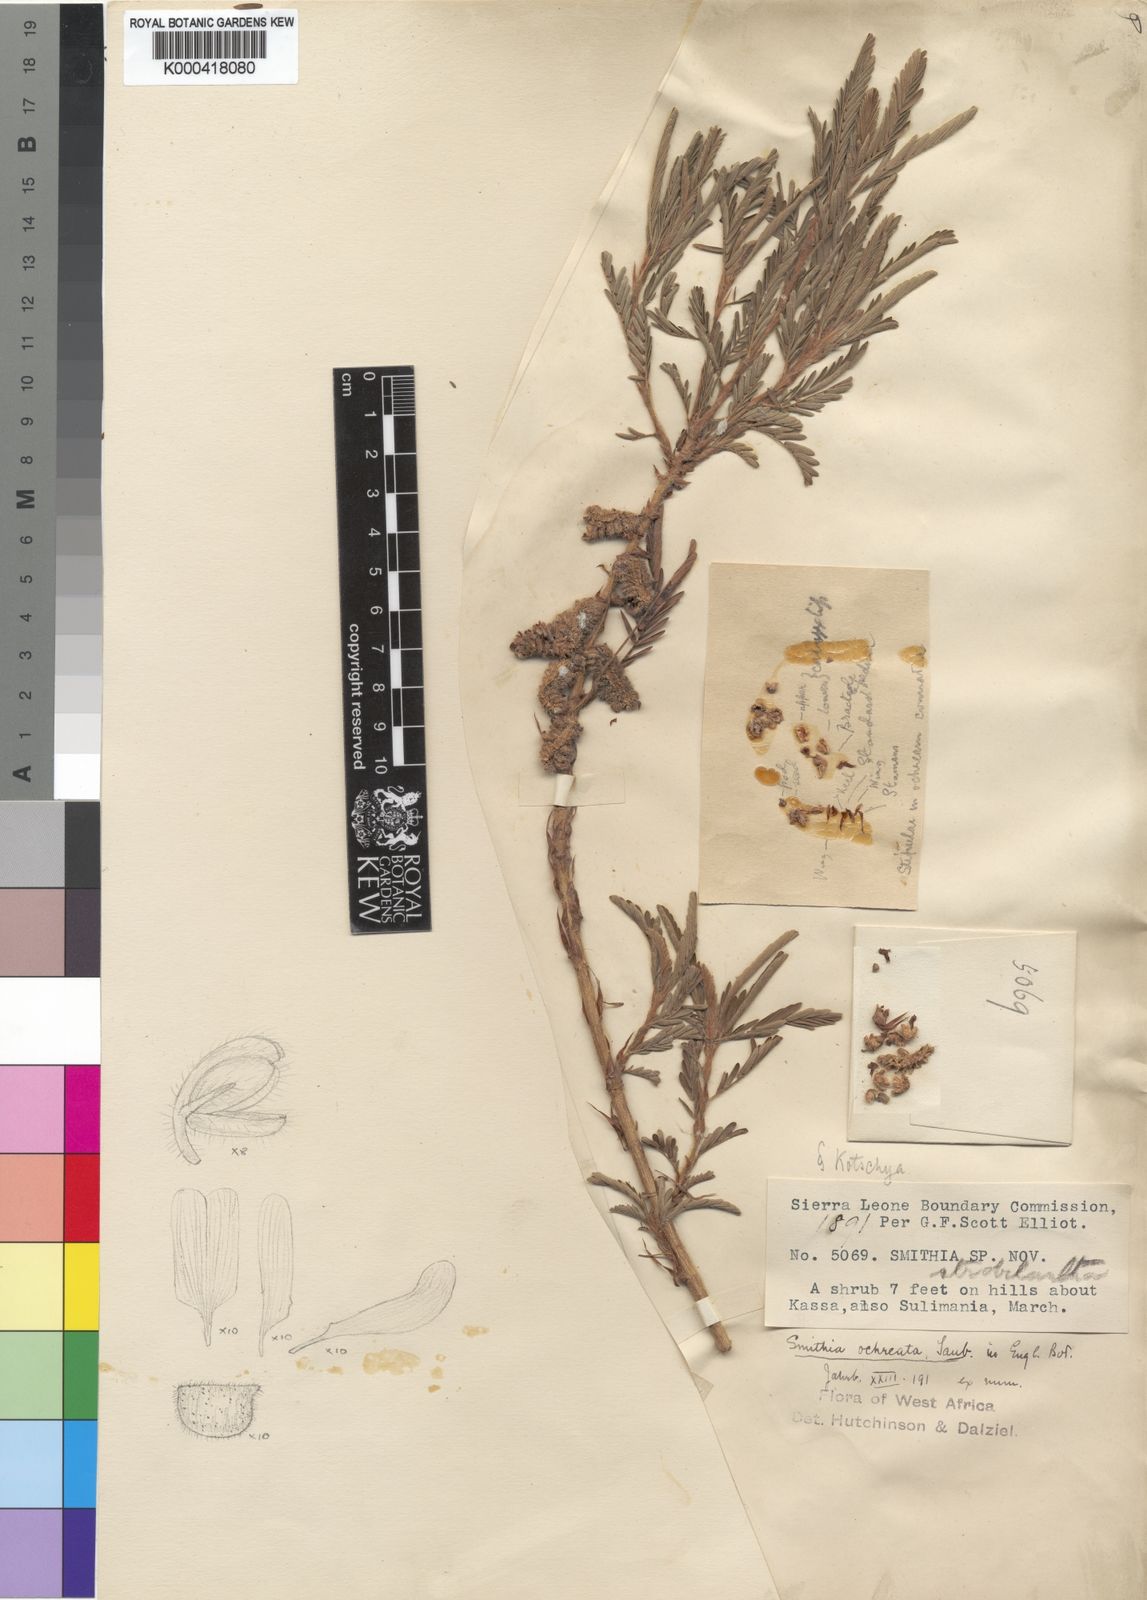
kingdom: Plantae
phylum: Tracheophyta
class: Magnoliopsida
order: Fabales
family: Fabaceae
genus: Kotschya
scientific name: Kotschya ochreata
